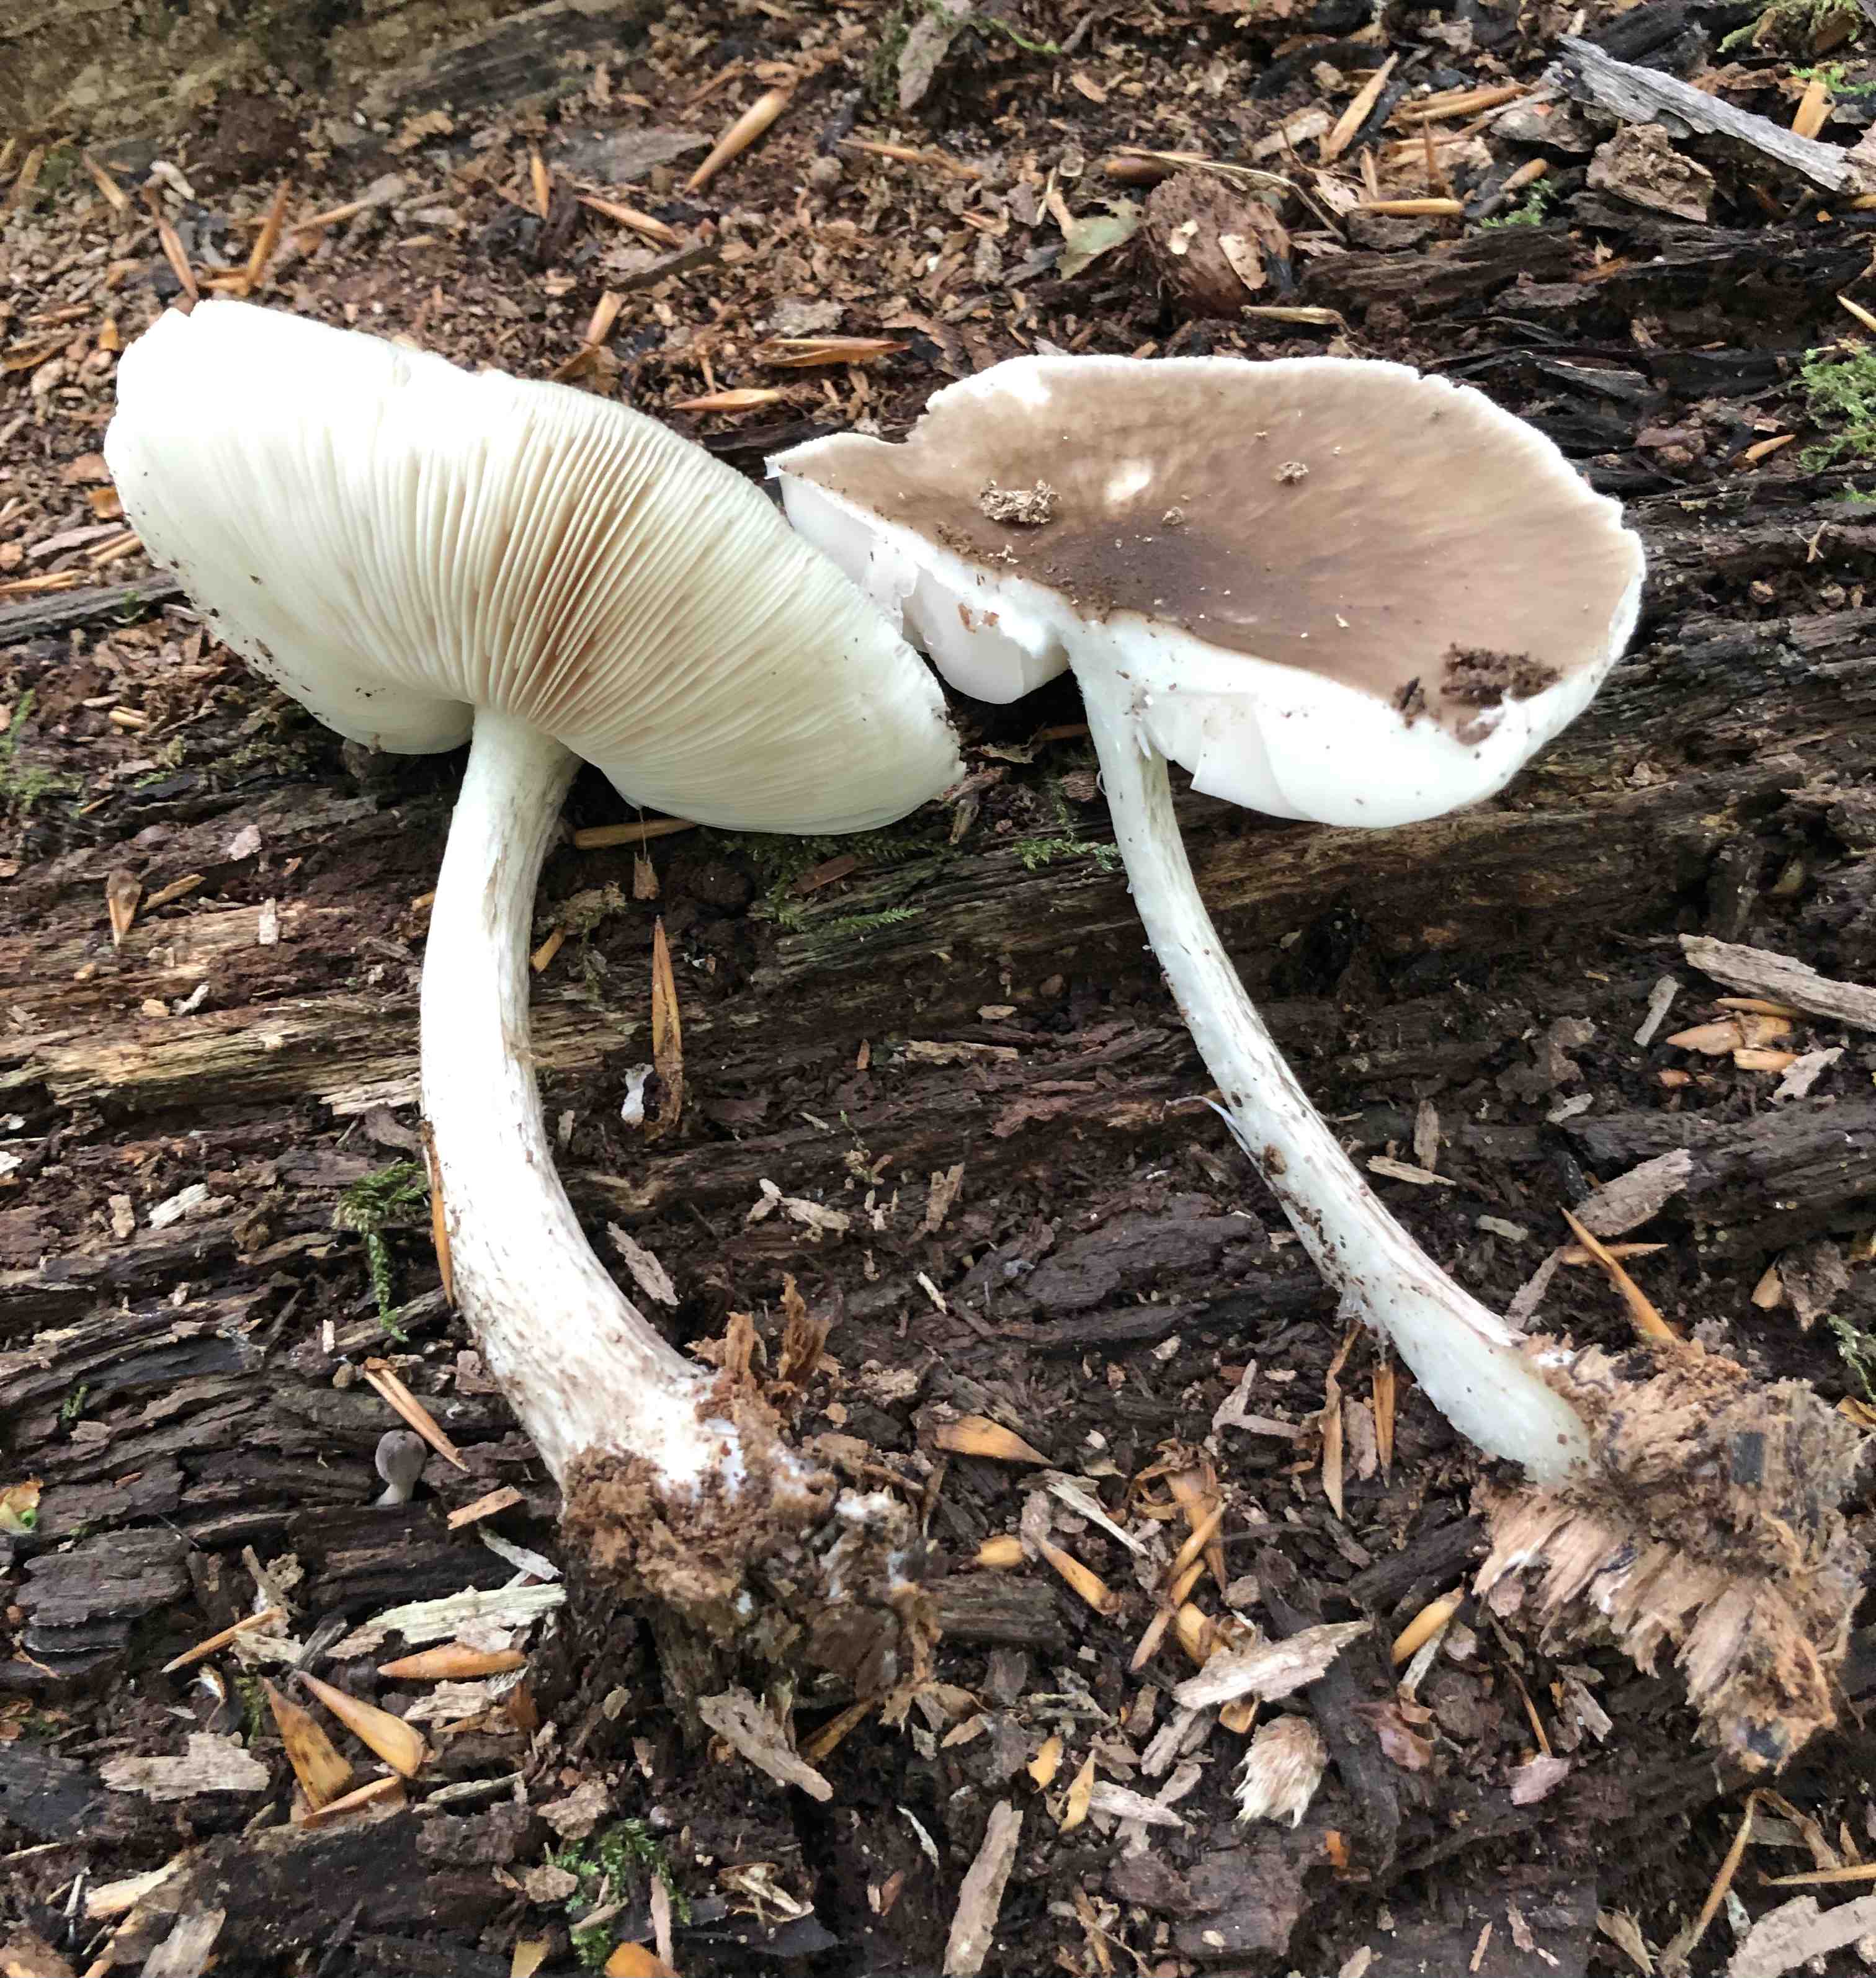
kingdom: Fungi
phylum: Basidiomycota
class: Agaricomycetes
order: Agaricales
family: Pluteaceae
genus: Pluteus
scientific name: Pluteus cervinus
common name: sodfarvet skærmhat
